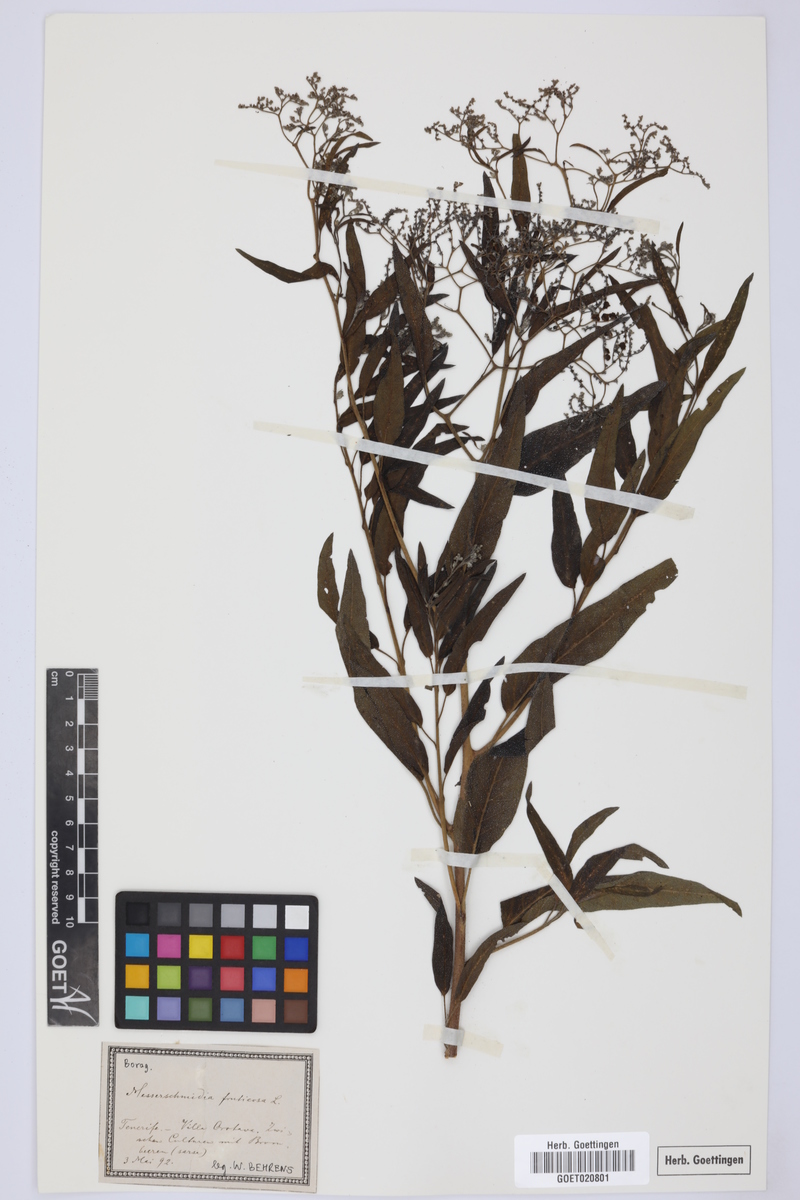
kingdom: Plantae
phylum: Tracheophyta
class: Magnoliopsida
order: Boraginales
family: Heliotropiaceae
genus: Heliotropium
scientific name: Heliotropium messerschmidioides
